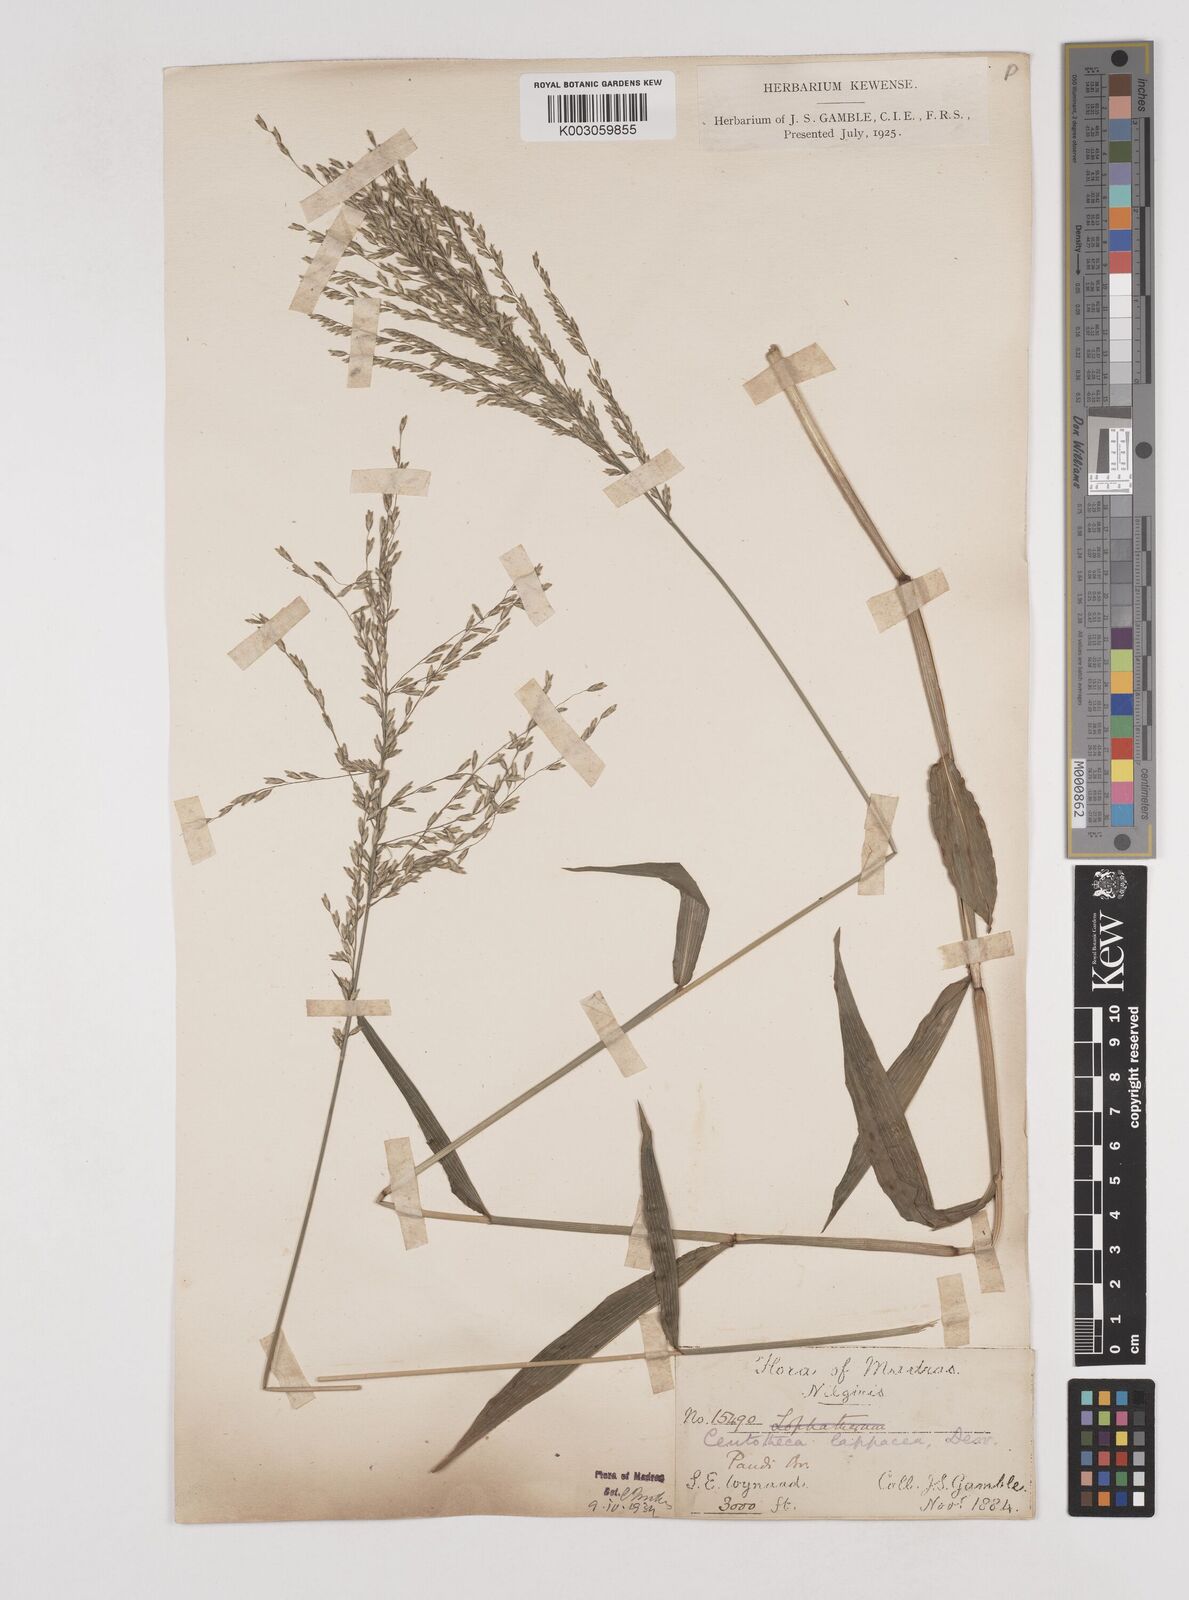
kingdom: Plantae
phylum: Tracheophyta
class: Liliopsida
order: Poales
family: Poaceae
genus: Centotheca
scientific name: Centotheca lappacea
